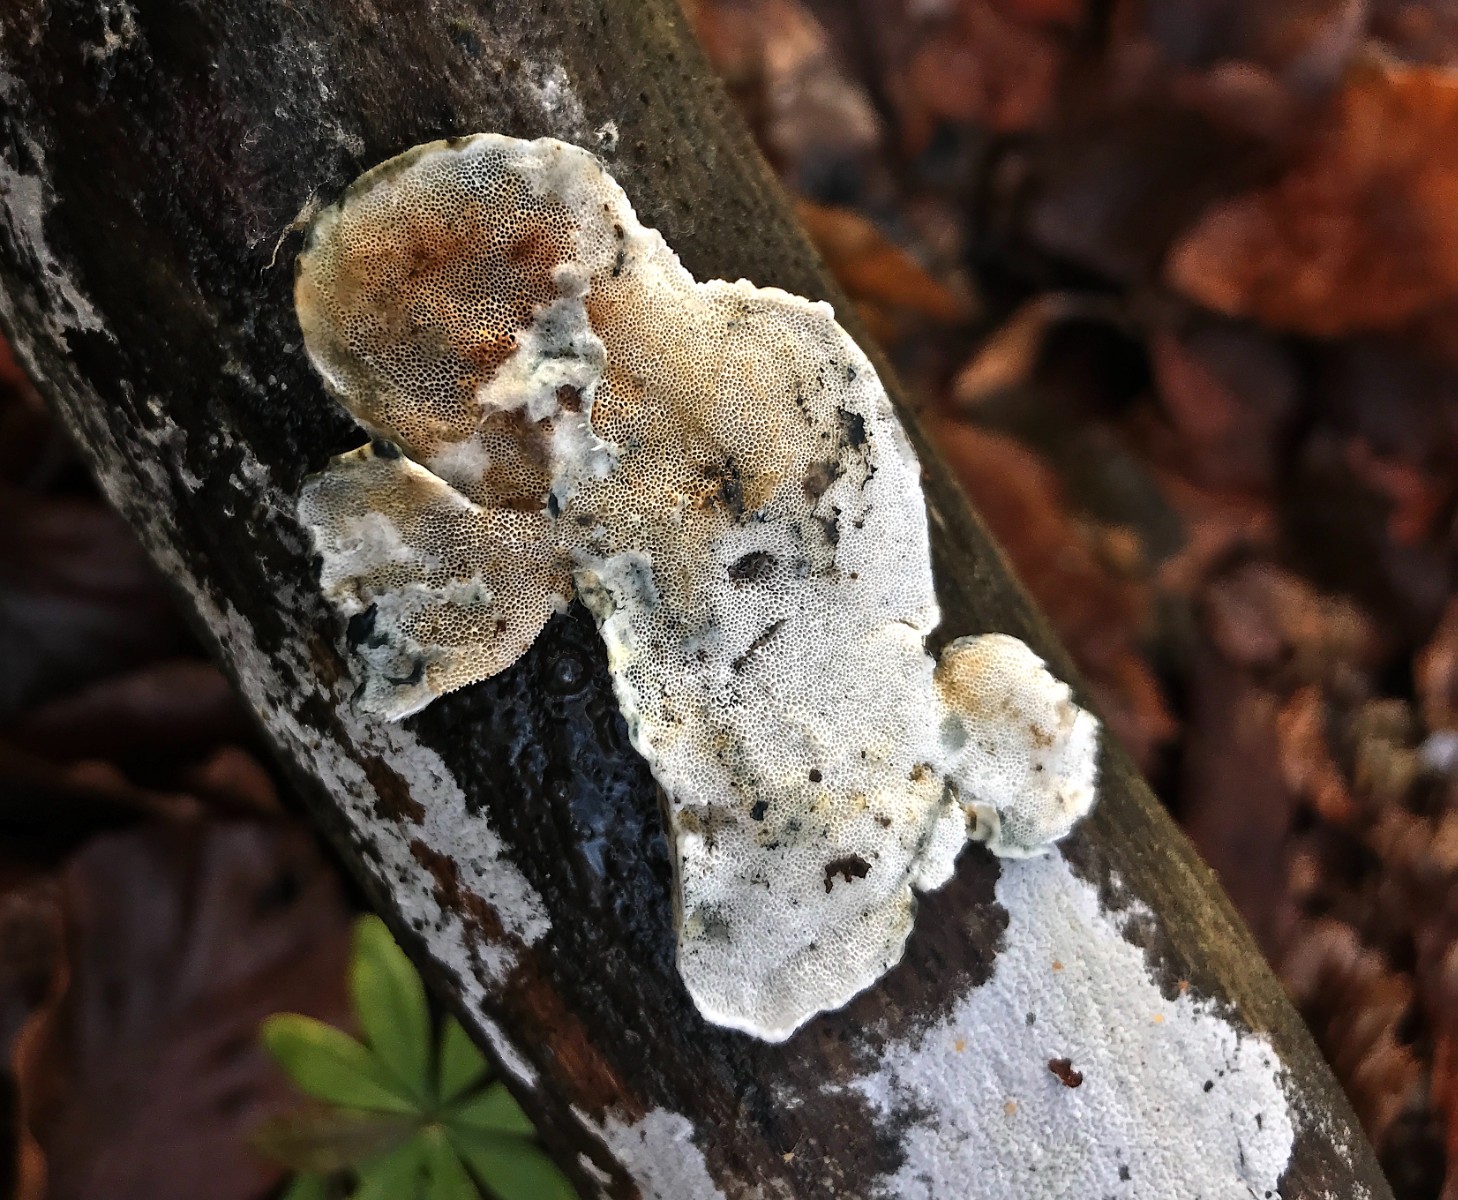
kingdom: Fungi
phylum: Basidiomycota
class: Agaricomycetes
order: Polyporales
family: Polyporaceae
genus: Cyanosporus
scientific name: Cyanosporus alni
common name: blegblå kødporesvamp
